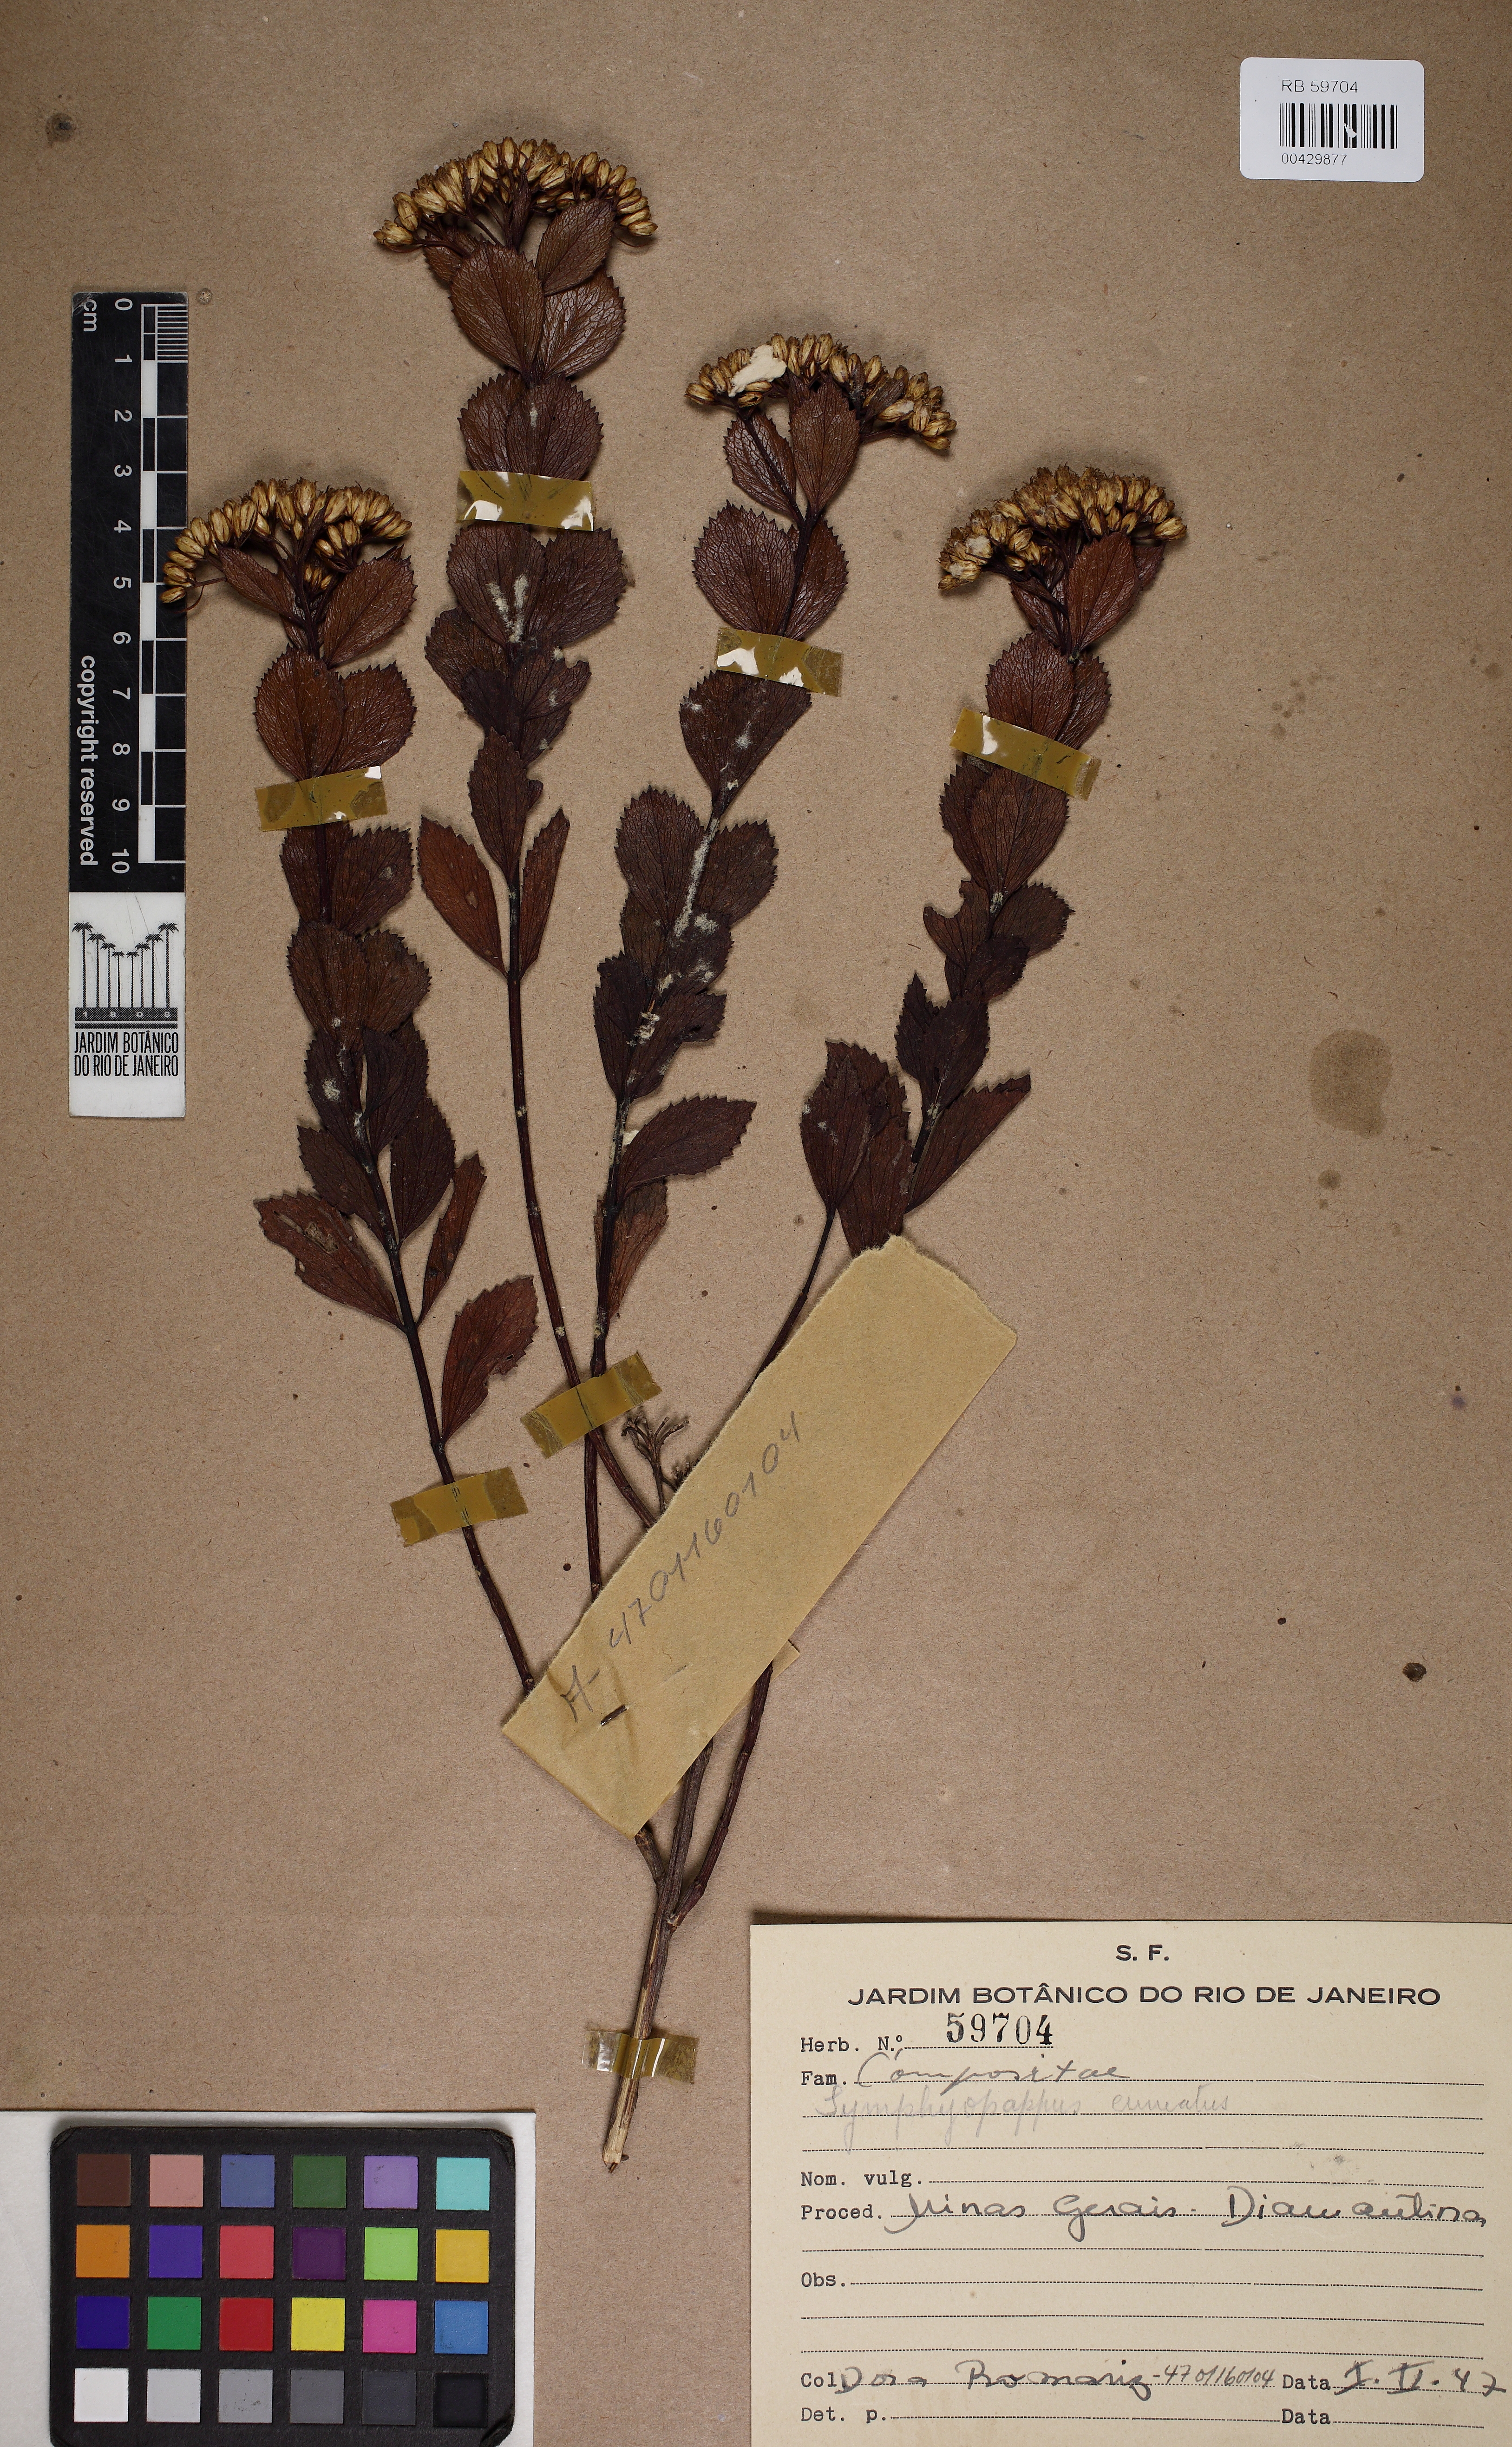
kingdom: Plantae
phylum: Tracheophyta
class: Magnoliopsida
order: Asterales
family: Asteraceae
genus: Symphyopappus
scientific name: Symphyopappus decussatus
